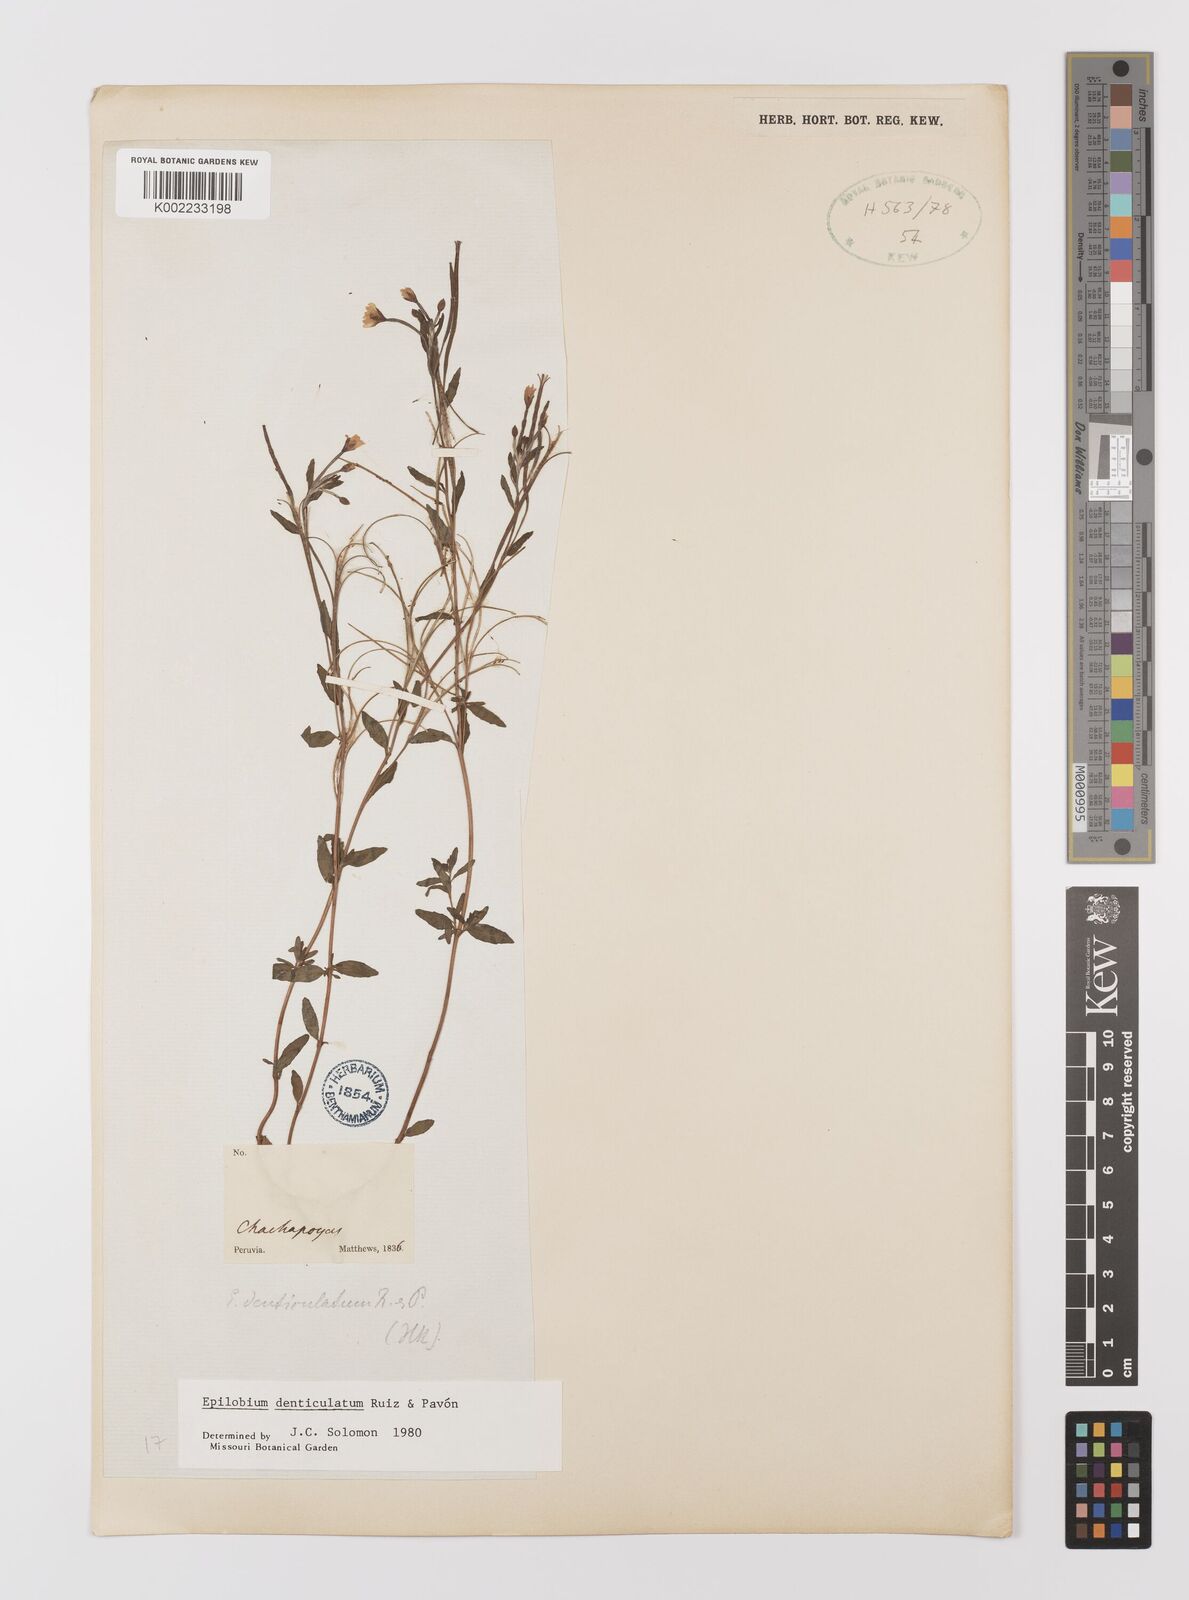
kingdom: Plantae
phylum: Tracheophyta
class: Magnoliopsida
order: Myrtales
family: Onagraceae
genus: Epilobium
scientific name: Epilobium denticulatum
